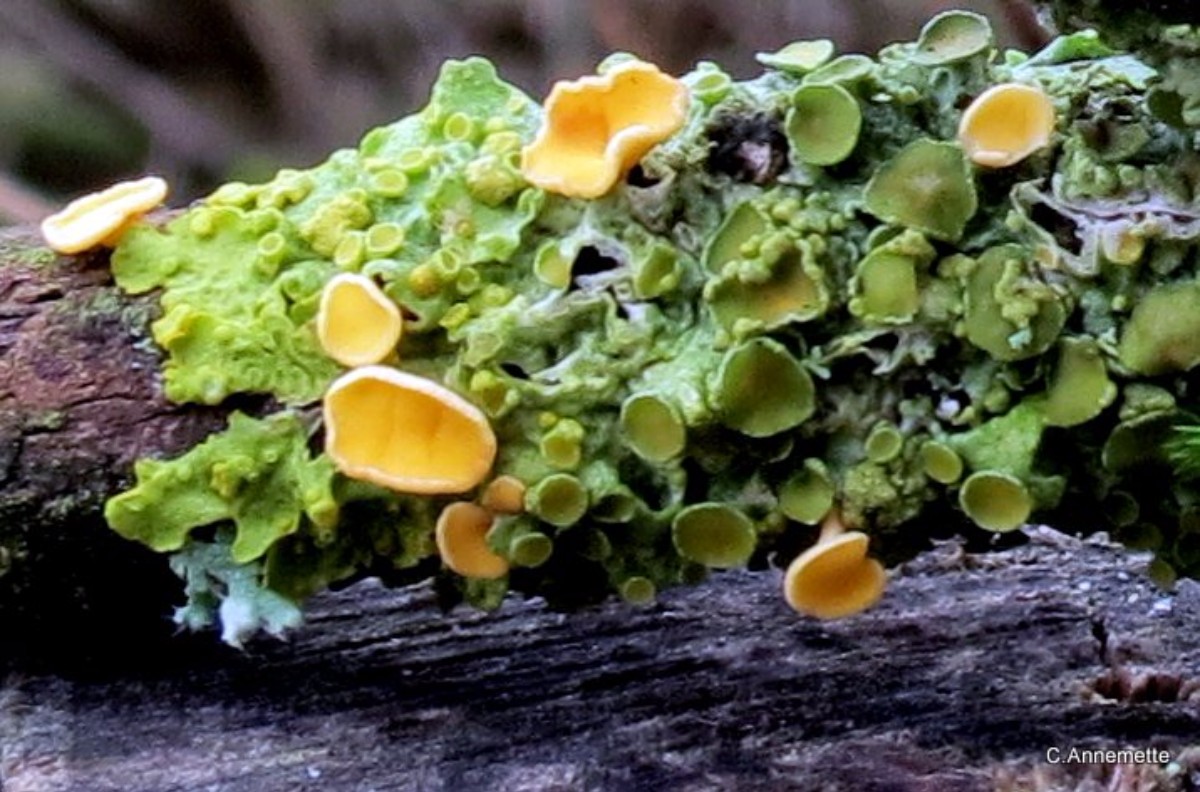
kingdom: Fungi
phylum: Ascomycota
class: Leotiomycetes
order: Helotiales
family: Helotiaceae
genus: Hymenoscyphus
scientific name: Hymenoscyphus
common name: stilkskive
